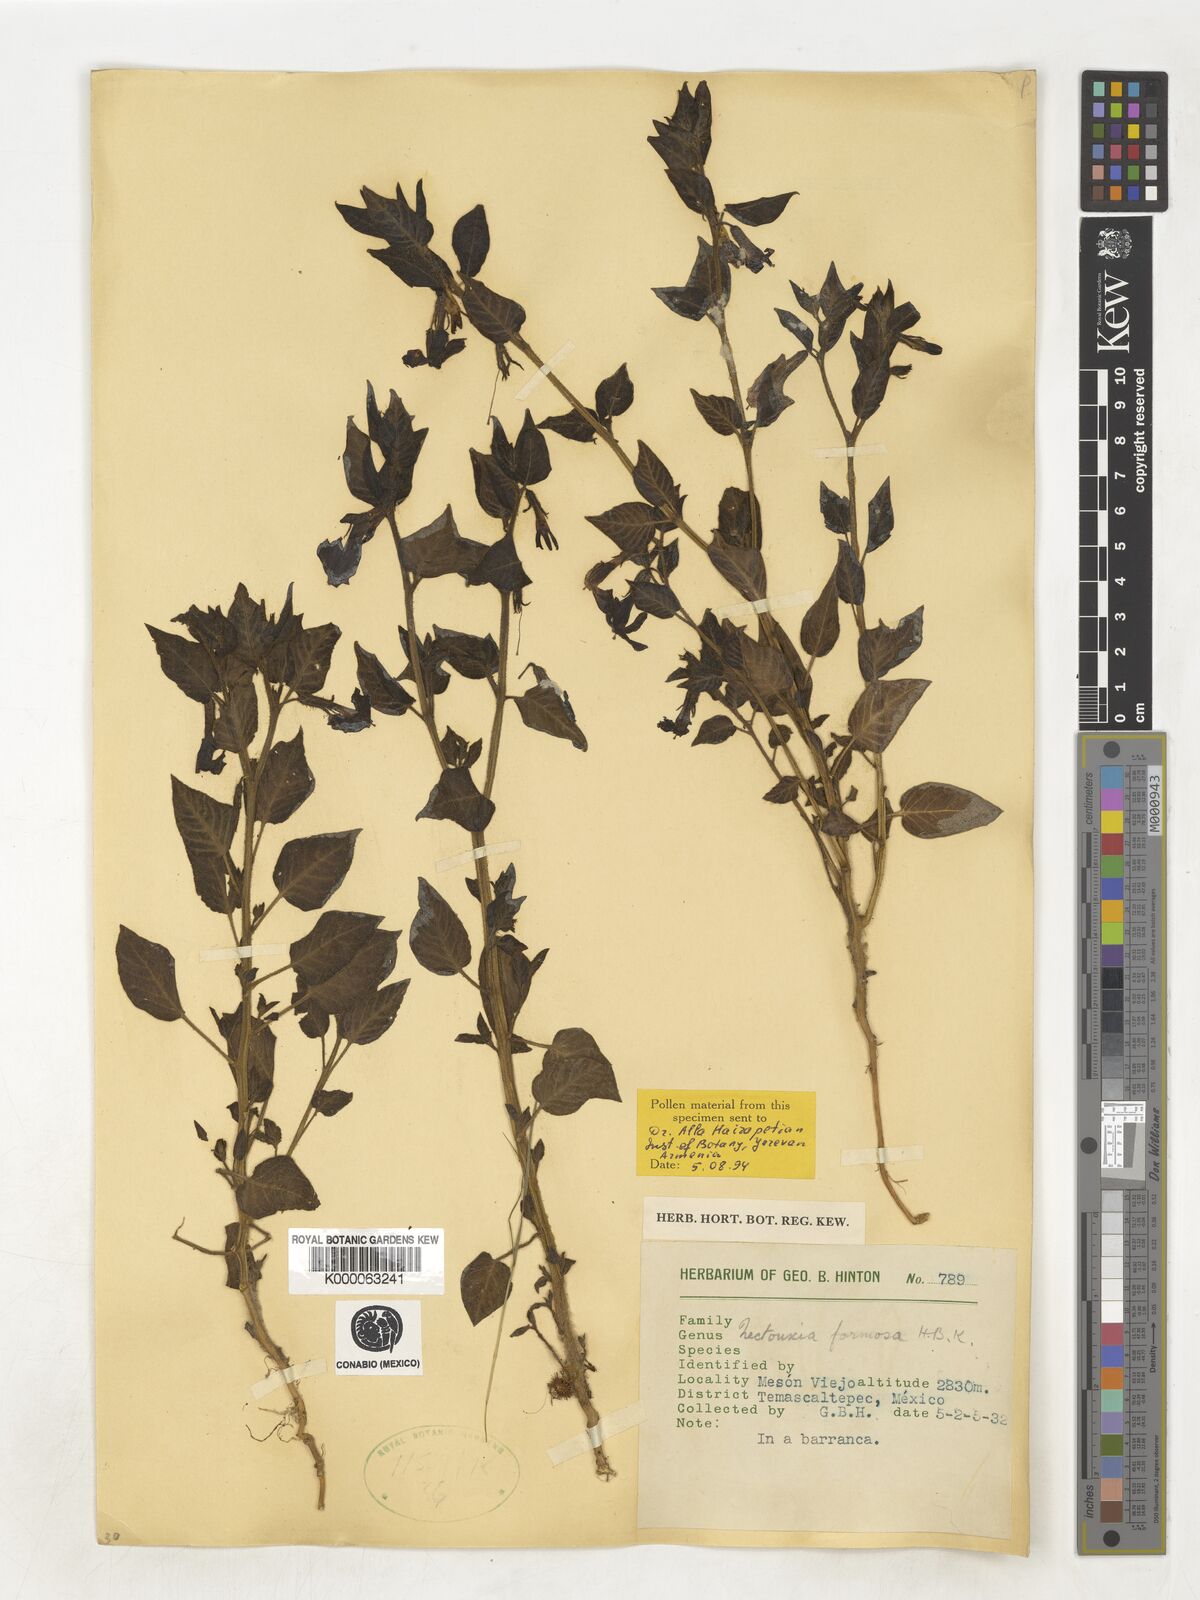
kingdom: Plantae
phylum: Tracheophyta
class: Magnoliopsida
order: Solanales
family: Solanaceae
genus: Nectouxia
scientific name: Nectouxia formosa
